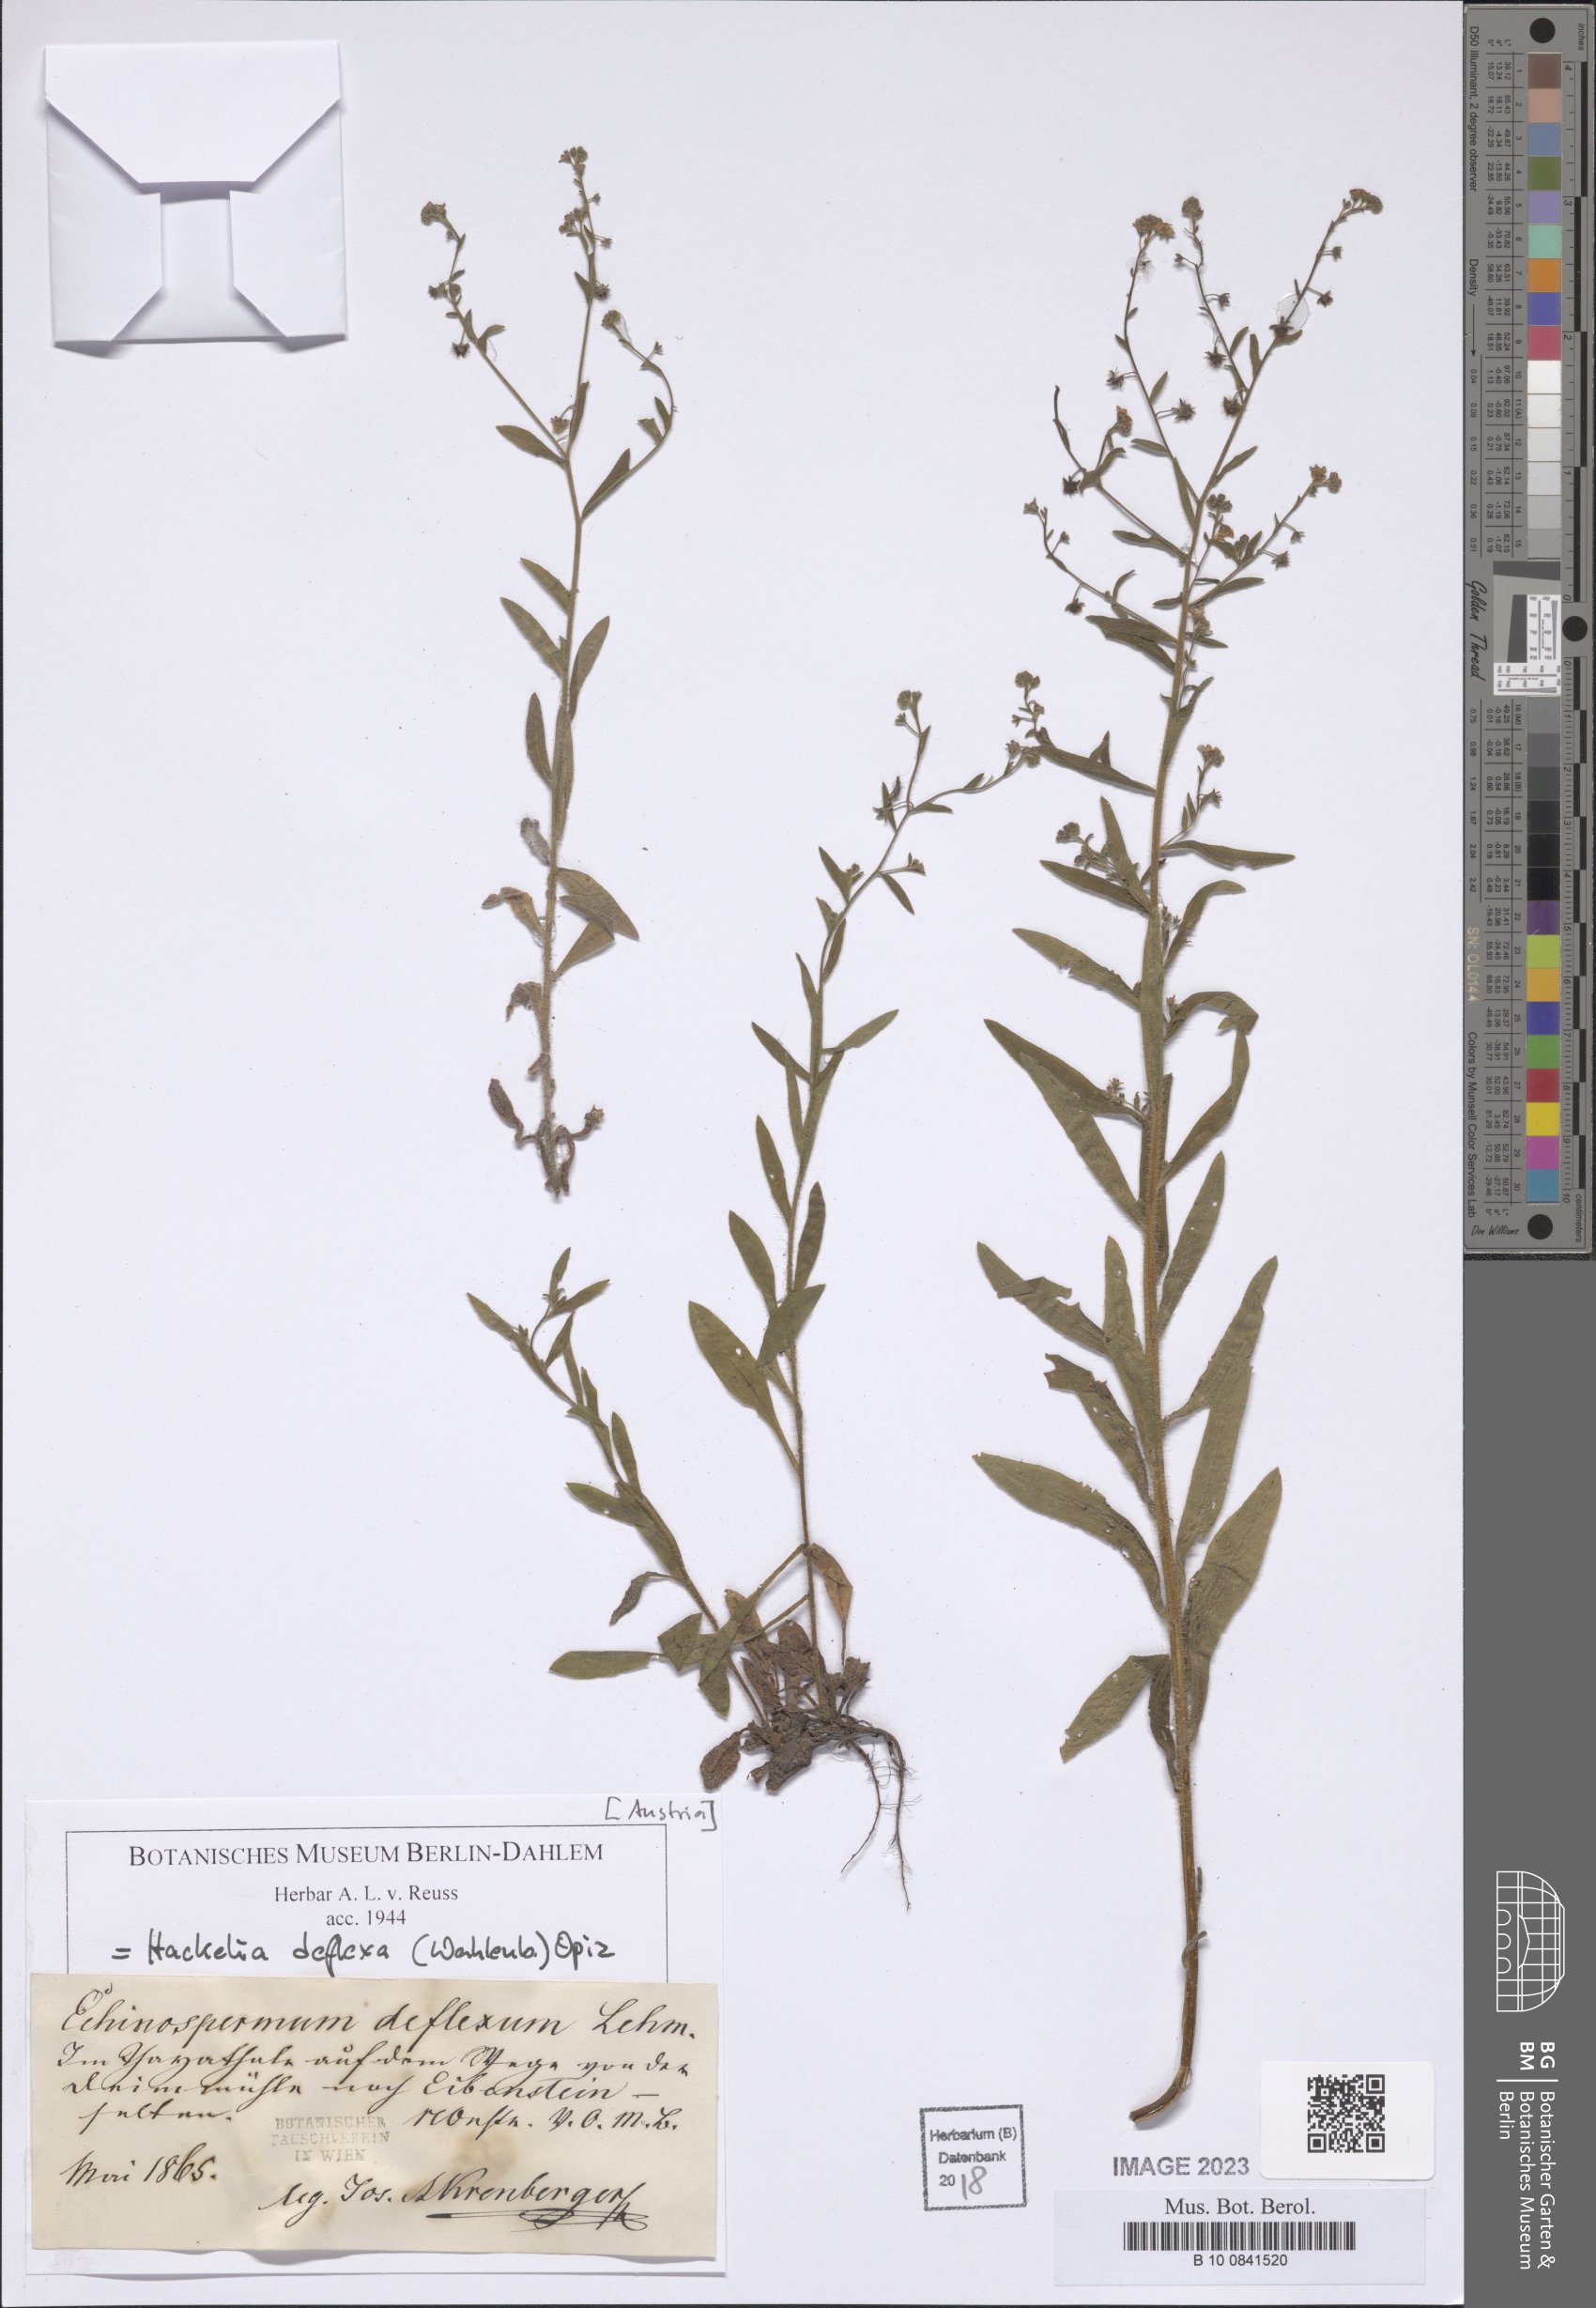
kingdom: Plantae
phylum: Tracheophyta
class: Magnoliopsida
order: Boraginales
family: Boraginaceae
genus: Hackelia
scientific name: Hackelia deflexa
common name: Nodding stickseed
